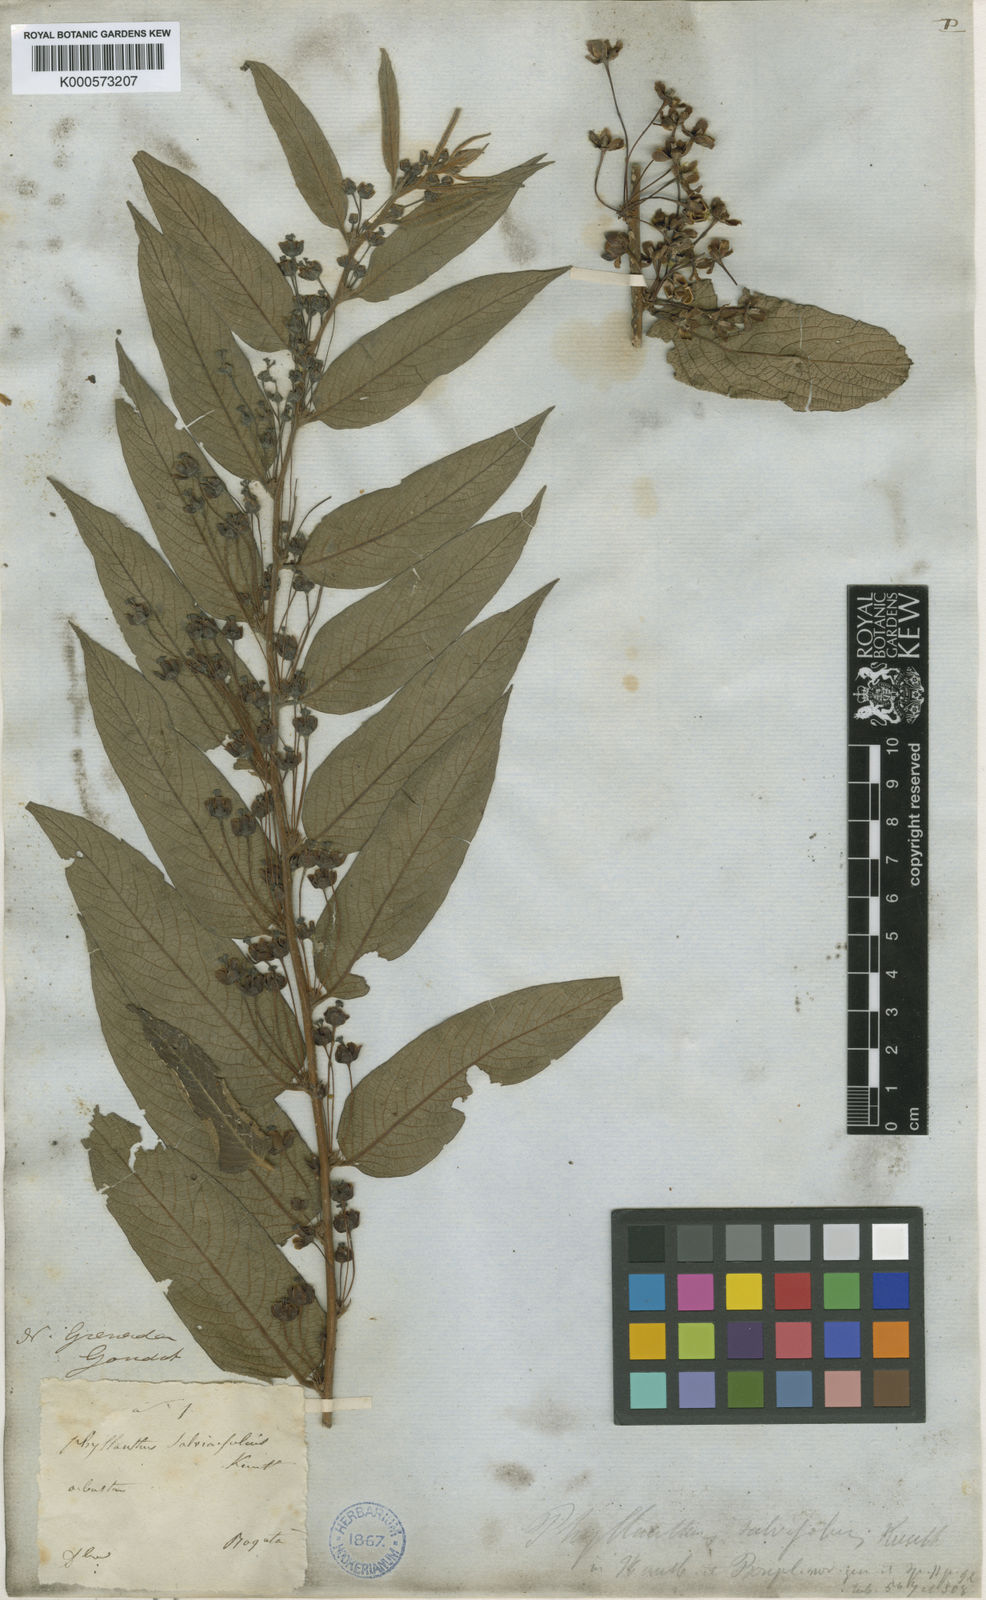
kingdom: Plantae
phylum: Tracheophyta
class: Magnoliopsida
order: Malpighiales
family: Phyllanthaceae
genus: Phyllanthus
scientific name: Phyllanthus salviifolius
